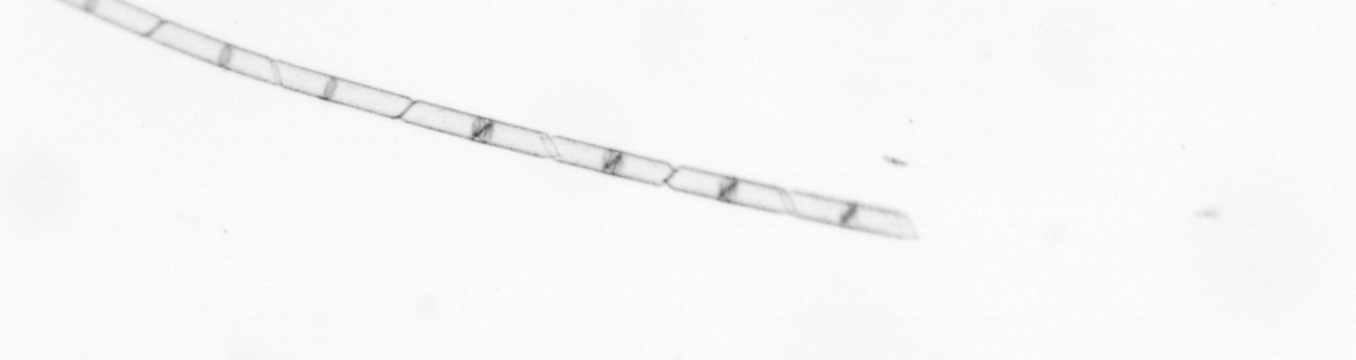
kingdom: Chromista
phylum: Ochrophyta
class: Bacillariophyceae
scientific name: Bacillariophyceae
